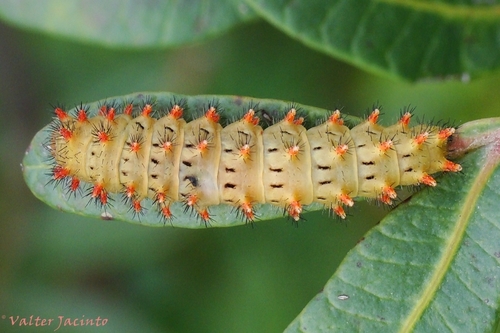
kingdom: Animalia
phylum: Arthropoda
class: Insecta
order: Lepidoptera
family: Papilionidae
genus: Zerynthia
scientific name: Zerynthia rumina
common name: Spanish festoon
